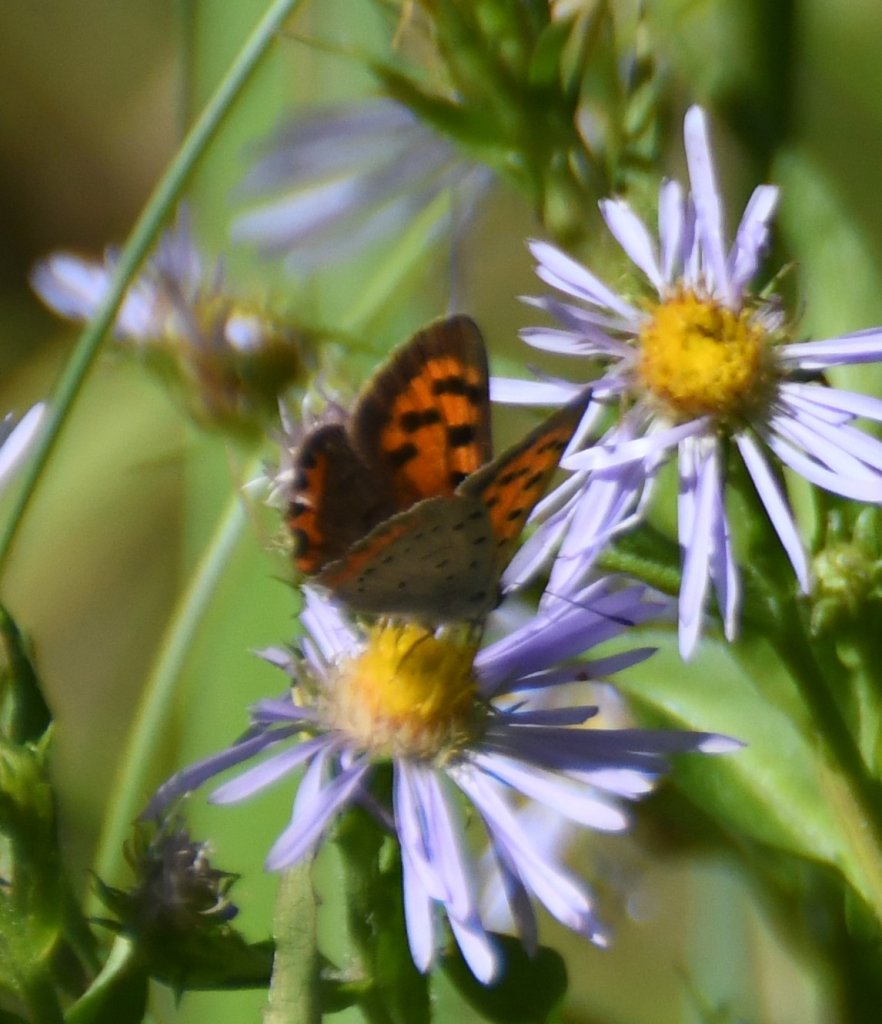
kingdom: Animalia
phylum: Arthropoda
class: Insecta
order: Lepidoptera
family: Lycaenidae
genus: Lycaena
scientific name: Lycaena phlaeas
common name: American Copper
